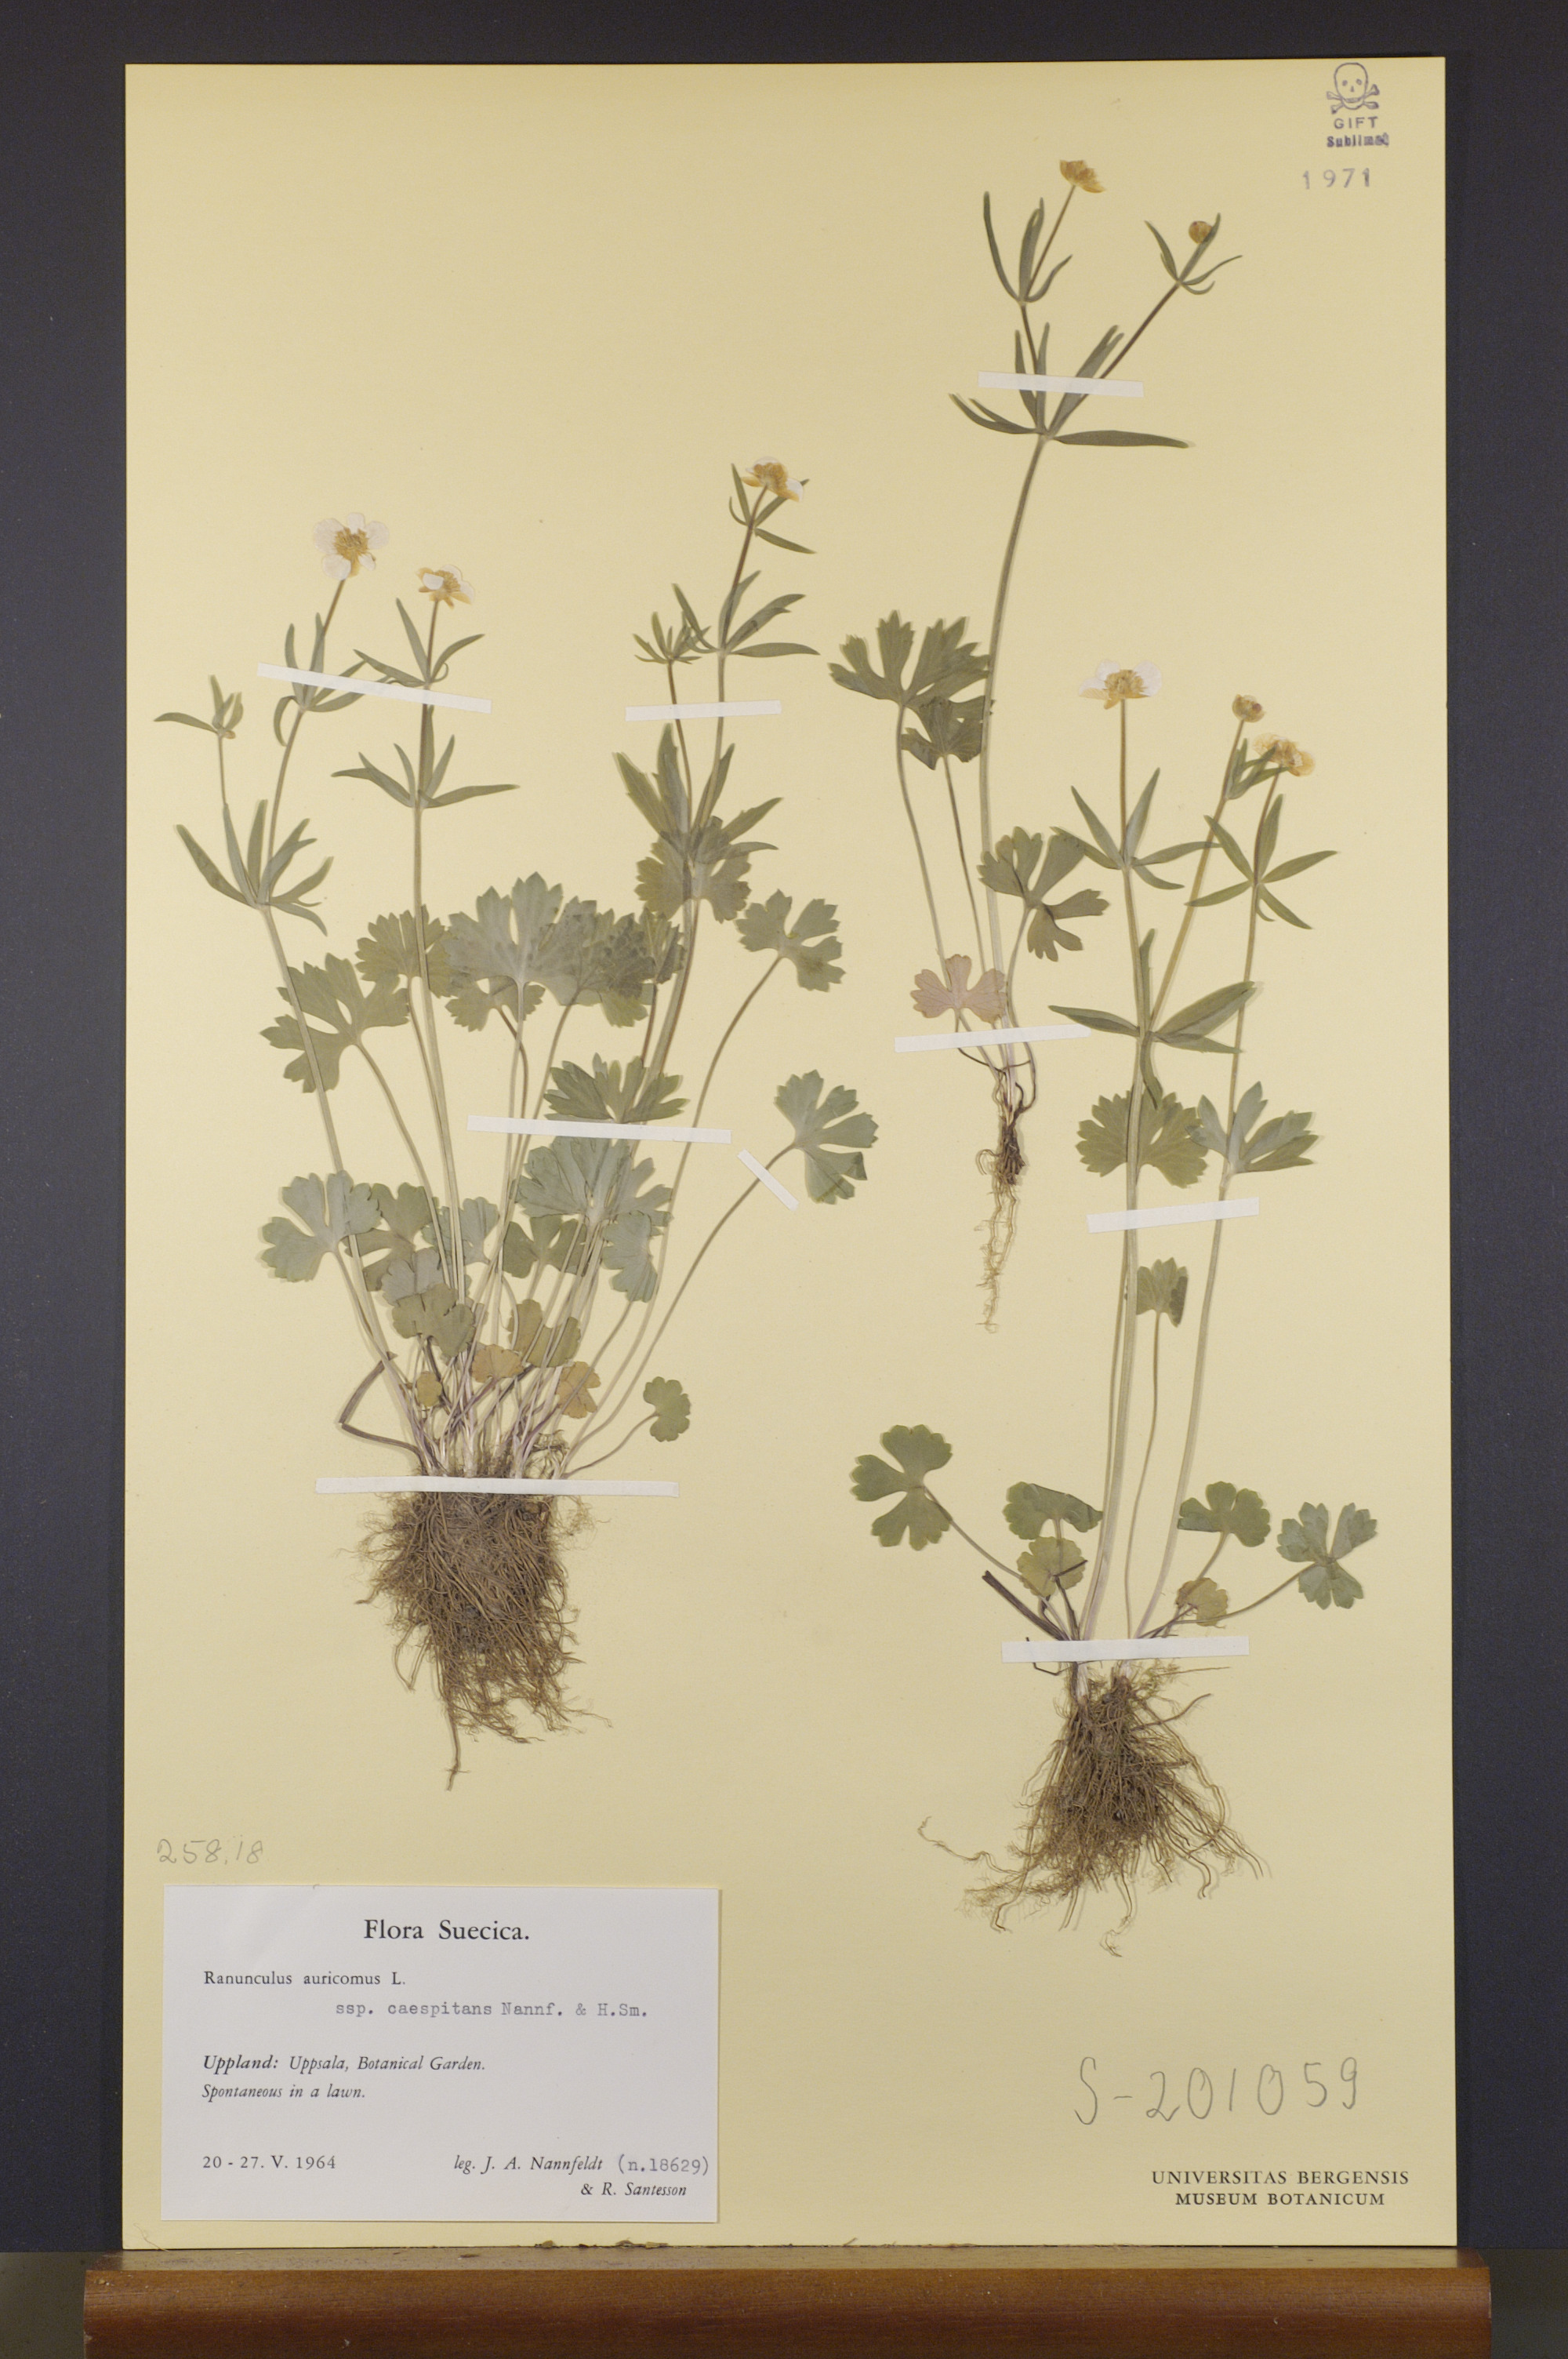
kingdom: Plantae
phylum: Tracheophyta
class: Magnoliopsida
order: Ranunculales
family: Ranunculaceae
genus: Ranunculus
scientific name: Ranunculus caespitans
